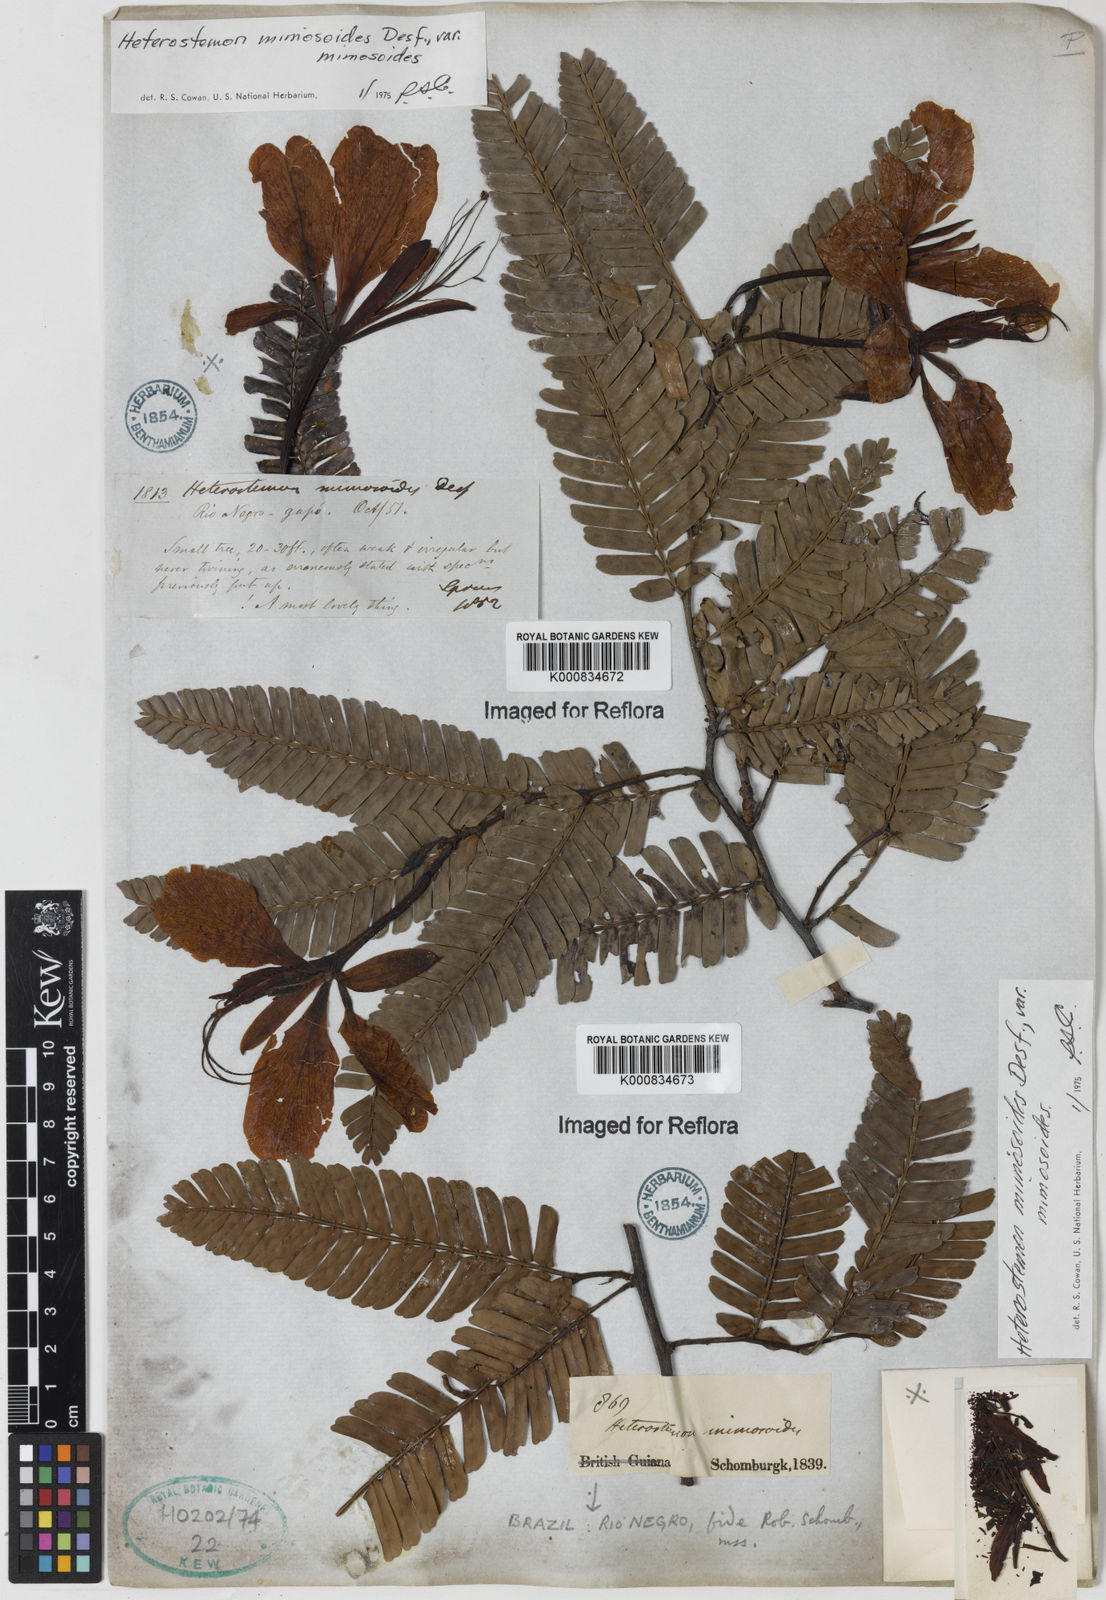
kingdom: Plantae
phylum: Tracheophyta
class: Magnoliopsida
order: Fabales
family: Fabaceae
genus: Heterostemon
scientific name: Heterostemon mimosoides
